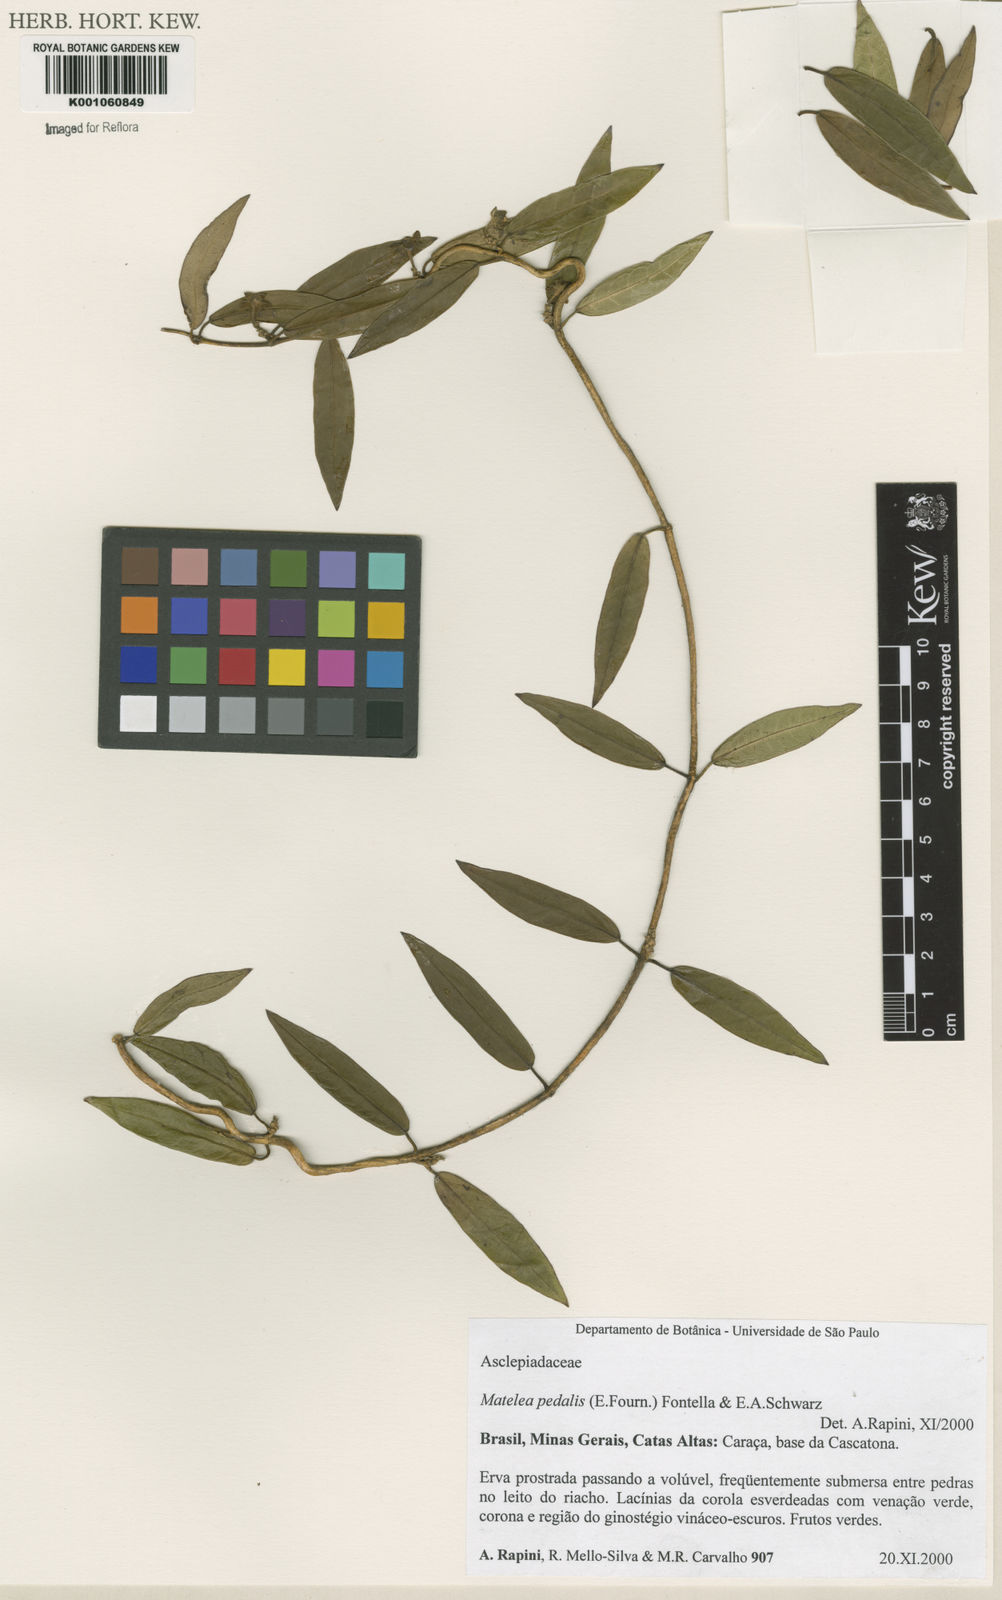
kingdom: Plantae
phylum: Tracheophyta
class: Magnoliopsida
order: Gentianales
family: Apocynaceae
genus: Matelea
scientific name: Matelea pedalis
